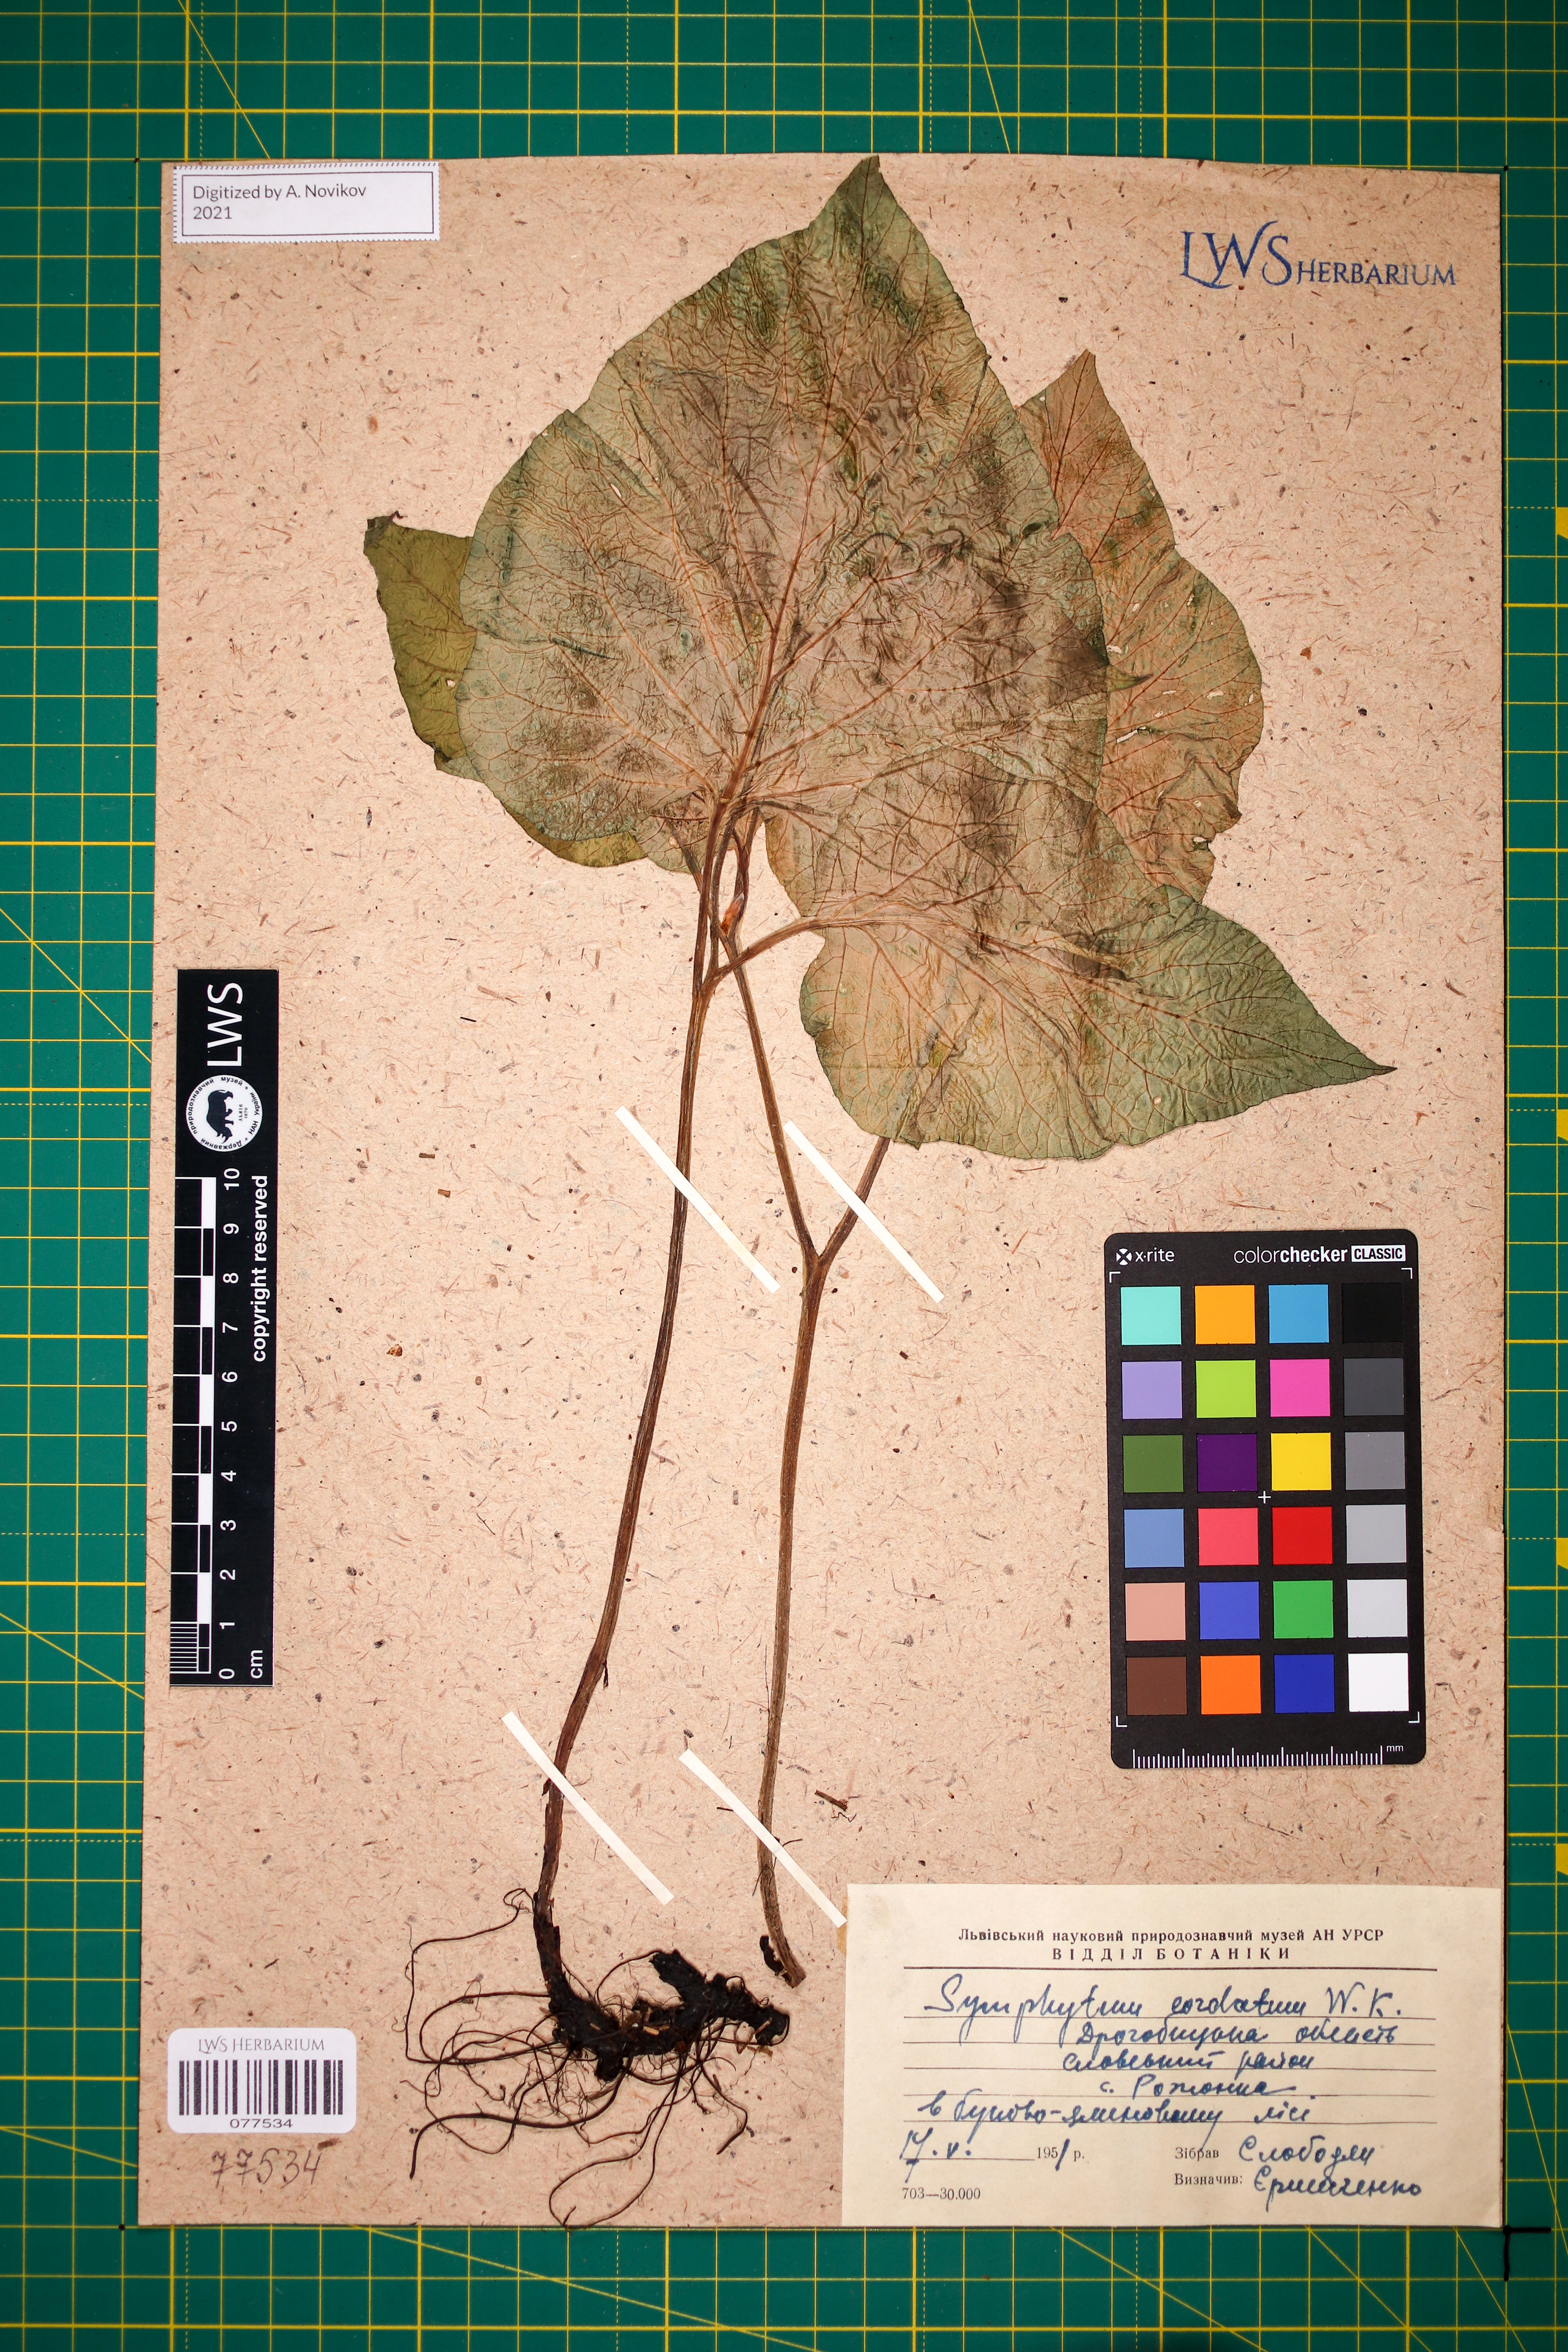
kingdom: Plantae
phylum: Tracheophyta
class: Magnoliopsida
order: Boraginales
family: Boraginaceae
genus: Symphytum
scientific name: Symphytum cordatum
